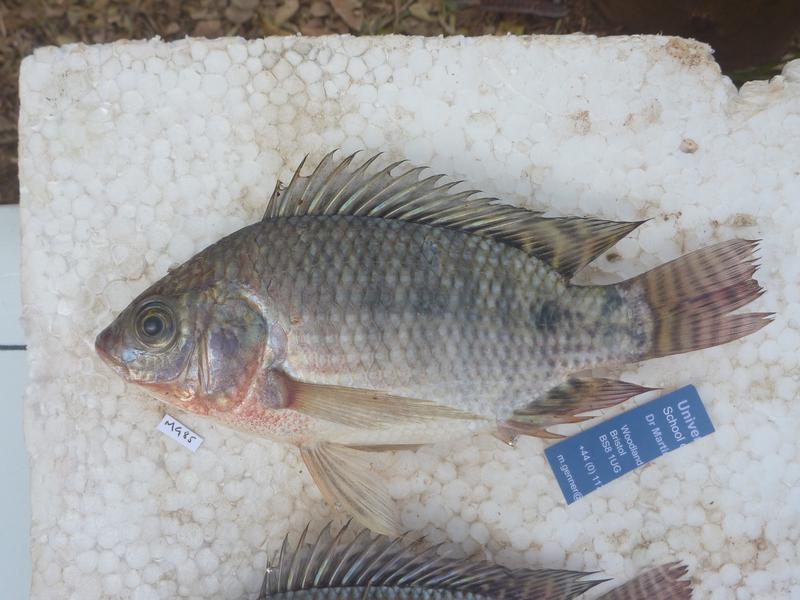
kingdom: Animalia
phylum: Chordata
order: Perciformes
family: Cichlidae
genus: Oreochromis
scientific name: Oreochromis niloticus
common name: Nile tilapia
